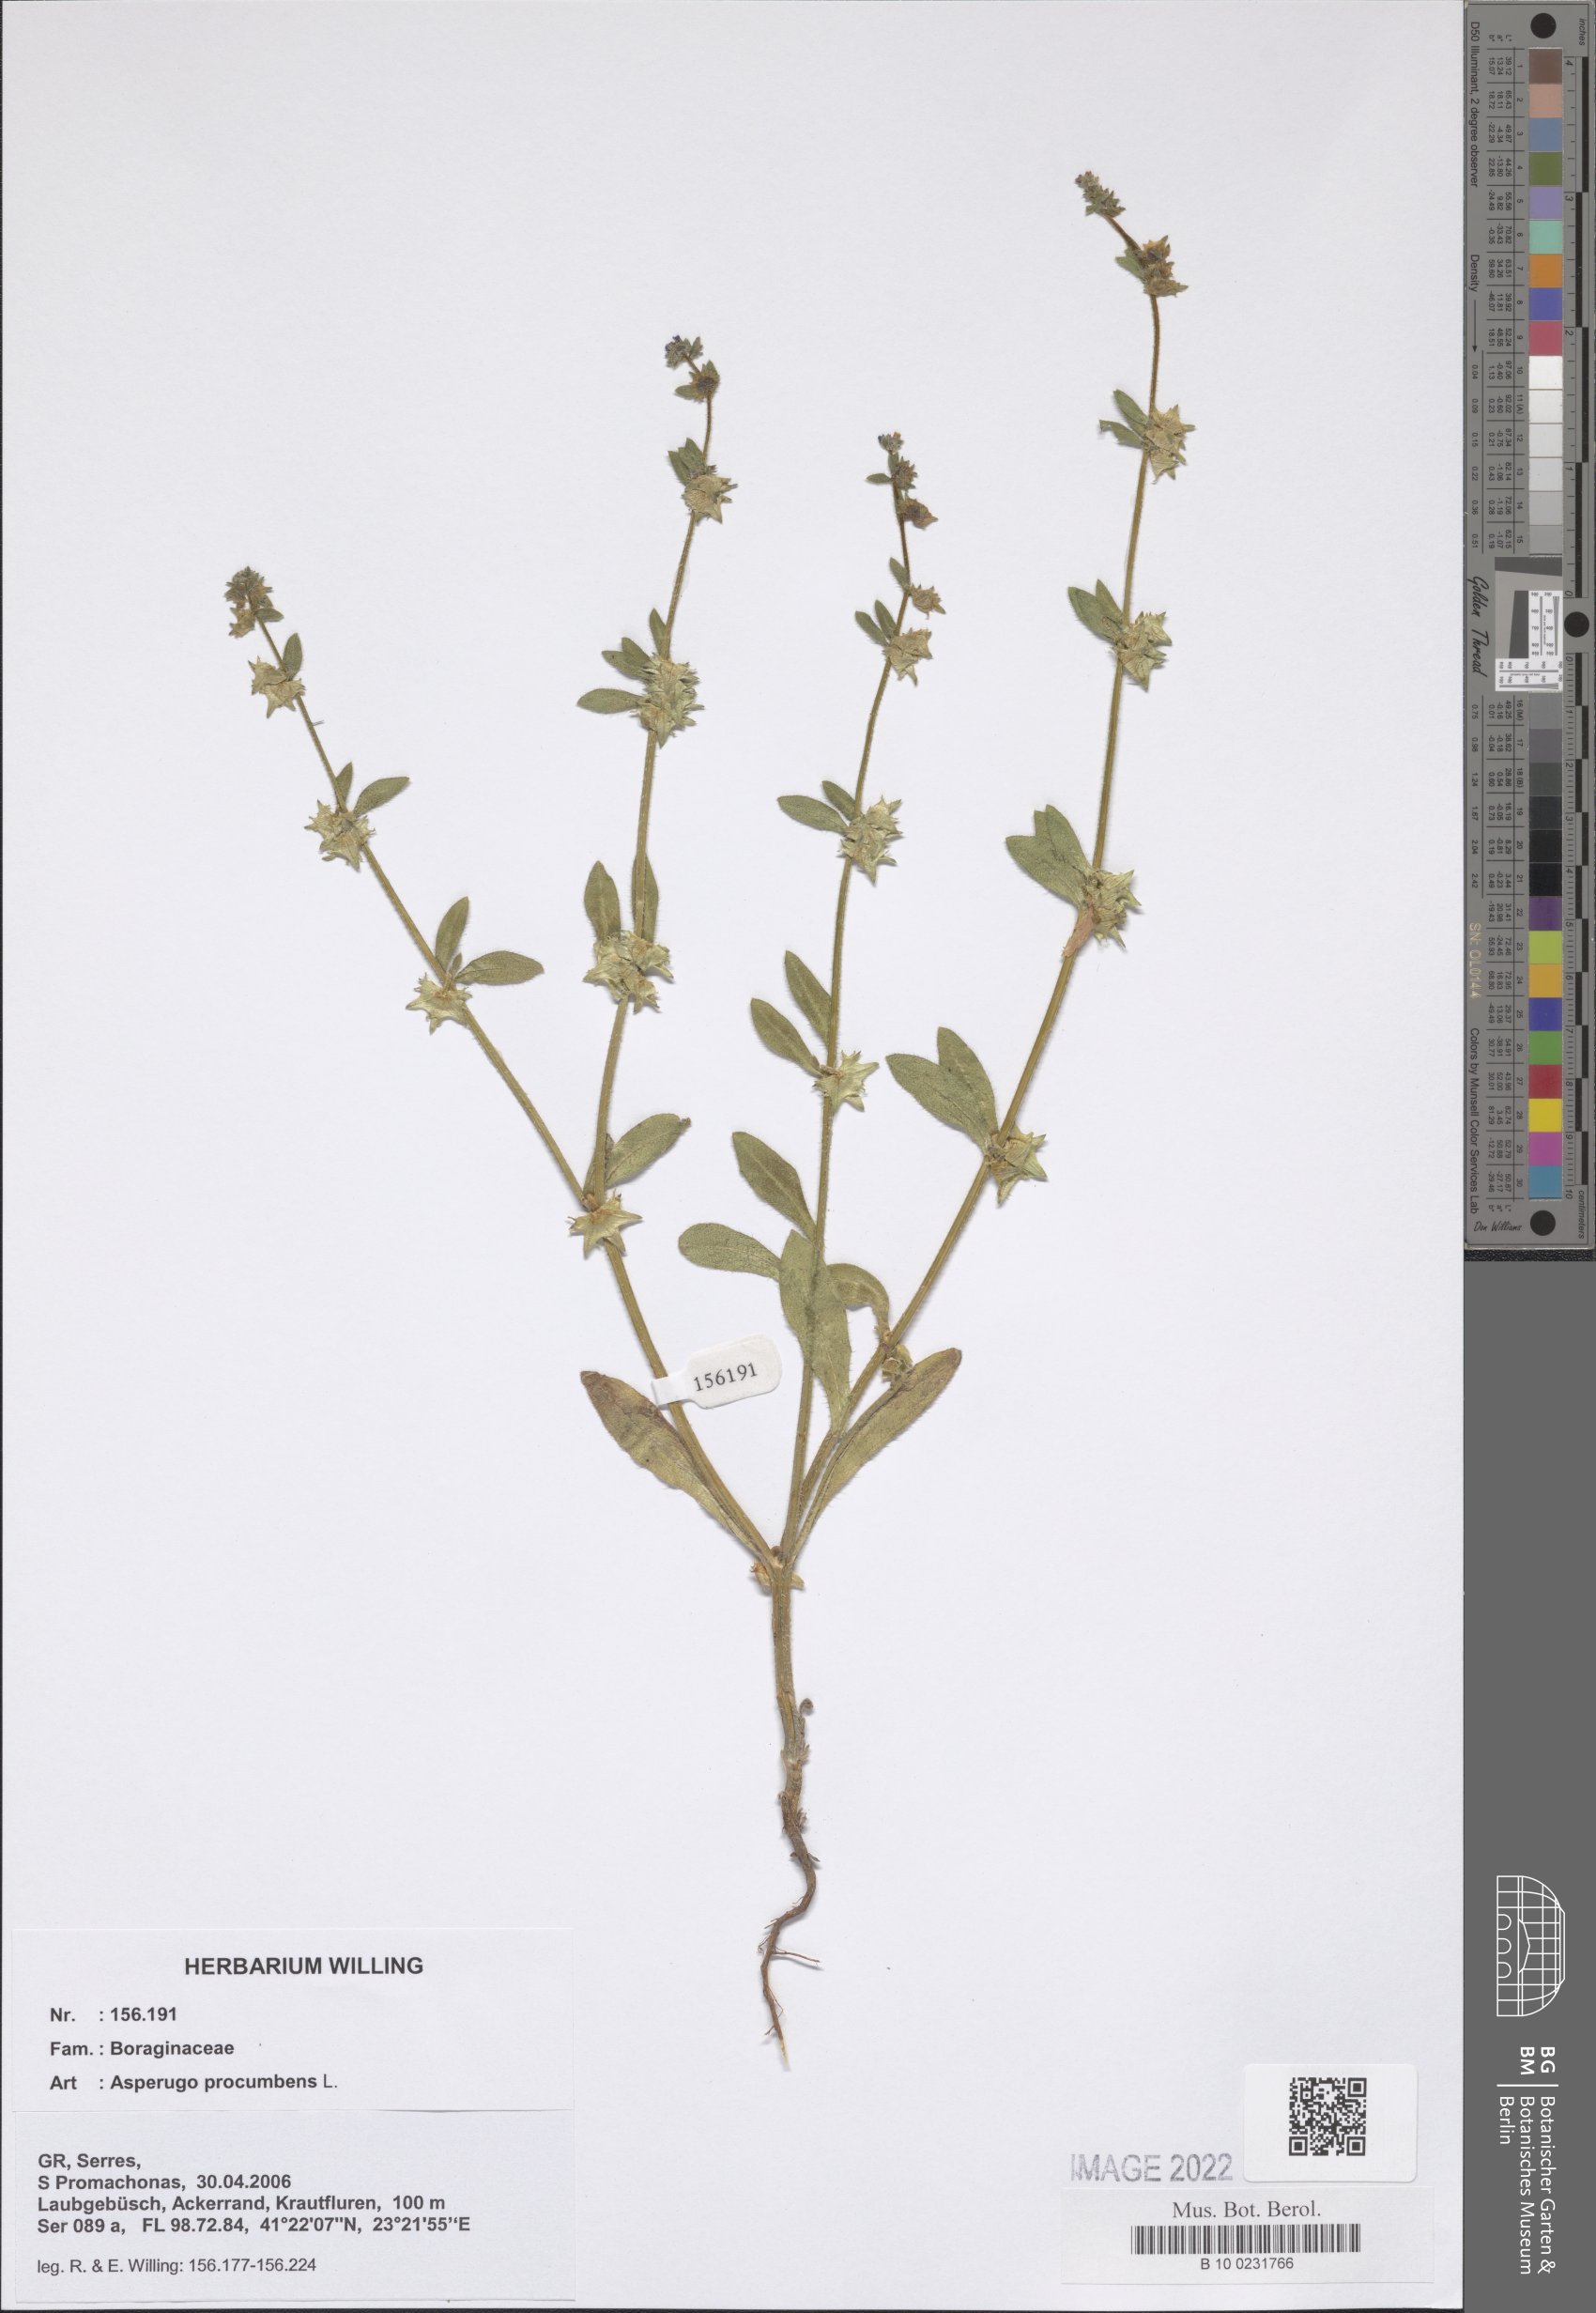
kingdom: Plantae
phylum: Tracheophyta
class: Magnoliopsida
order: Boraginales
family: Boraginaceae
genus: Asperugo
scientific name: Asperugo procumbens
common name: Madwort
